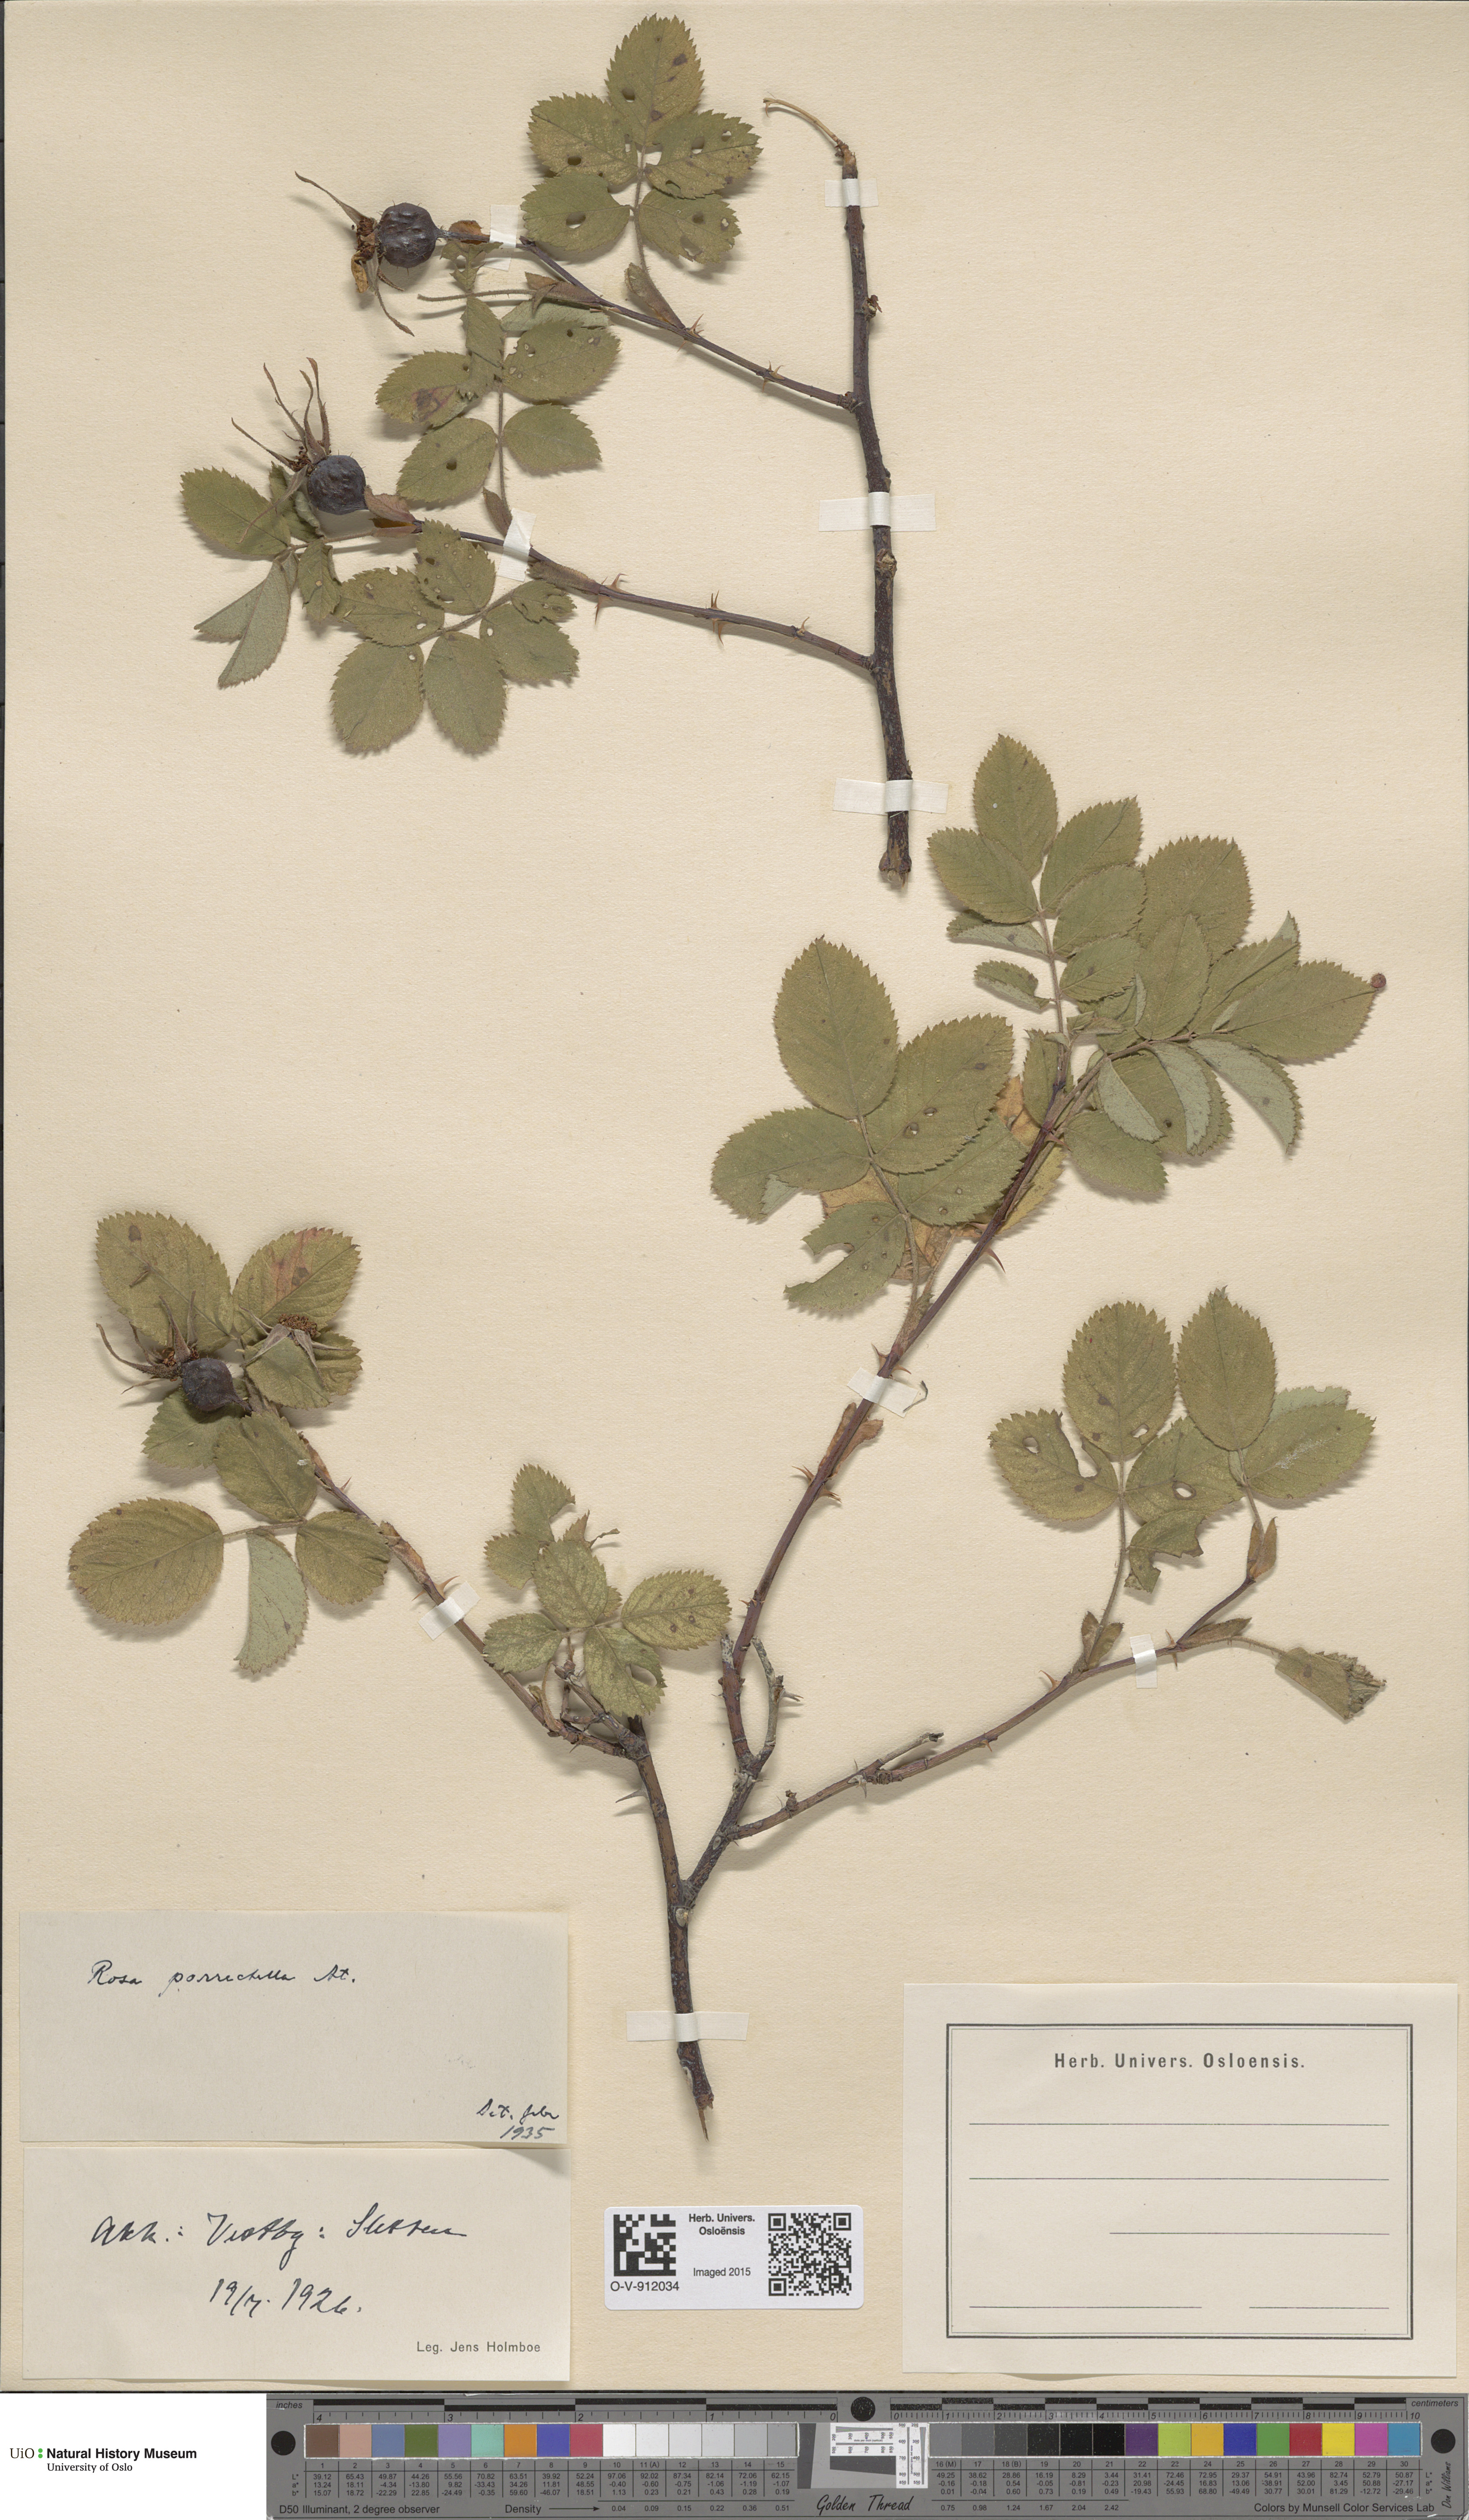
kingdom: Plantae
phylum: Tracheophyta
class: Magnoliopsida
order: Rosales
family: Rosaceae
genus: Rosa
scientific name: Rosa mollis
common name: Rose
